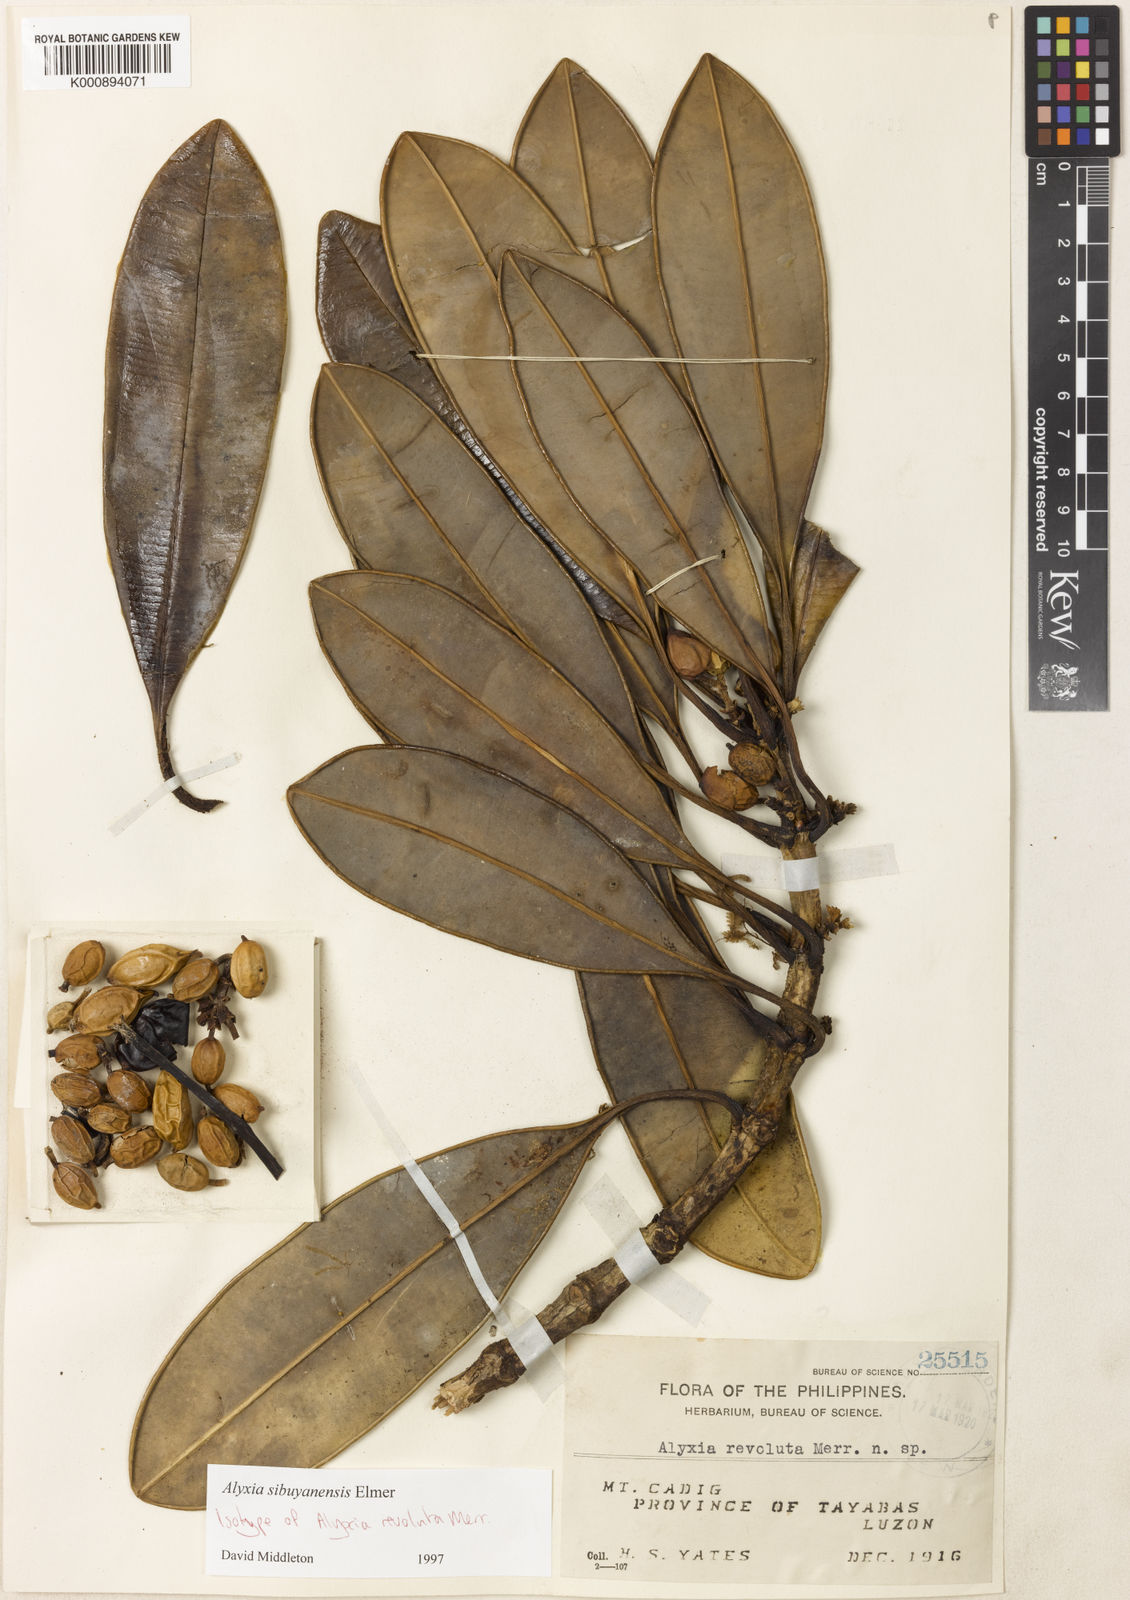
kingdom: Plantae
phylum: Tracheophyta
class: Magnoliopsida
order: Gentianales
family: Apocynaceae
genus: Alyxia
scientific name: Alyxia monticola
